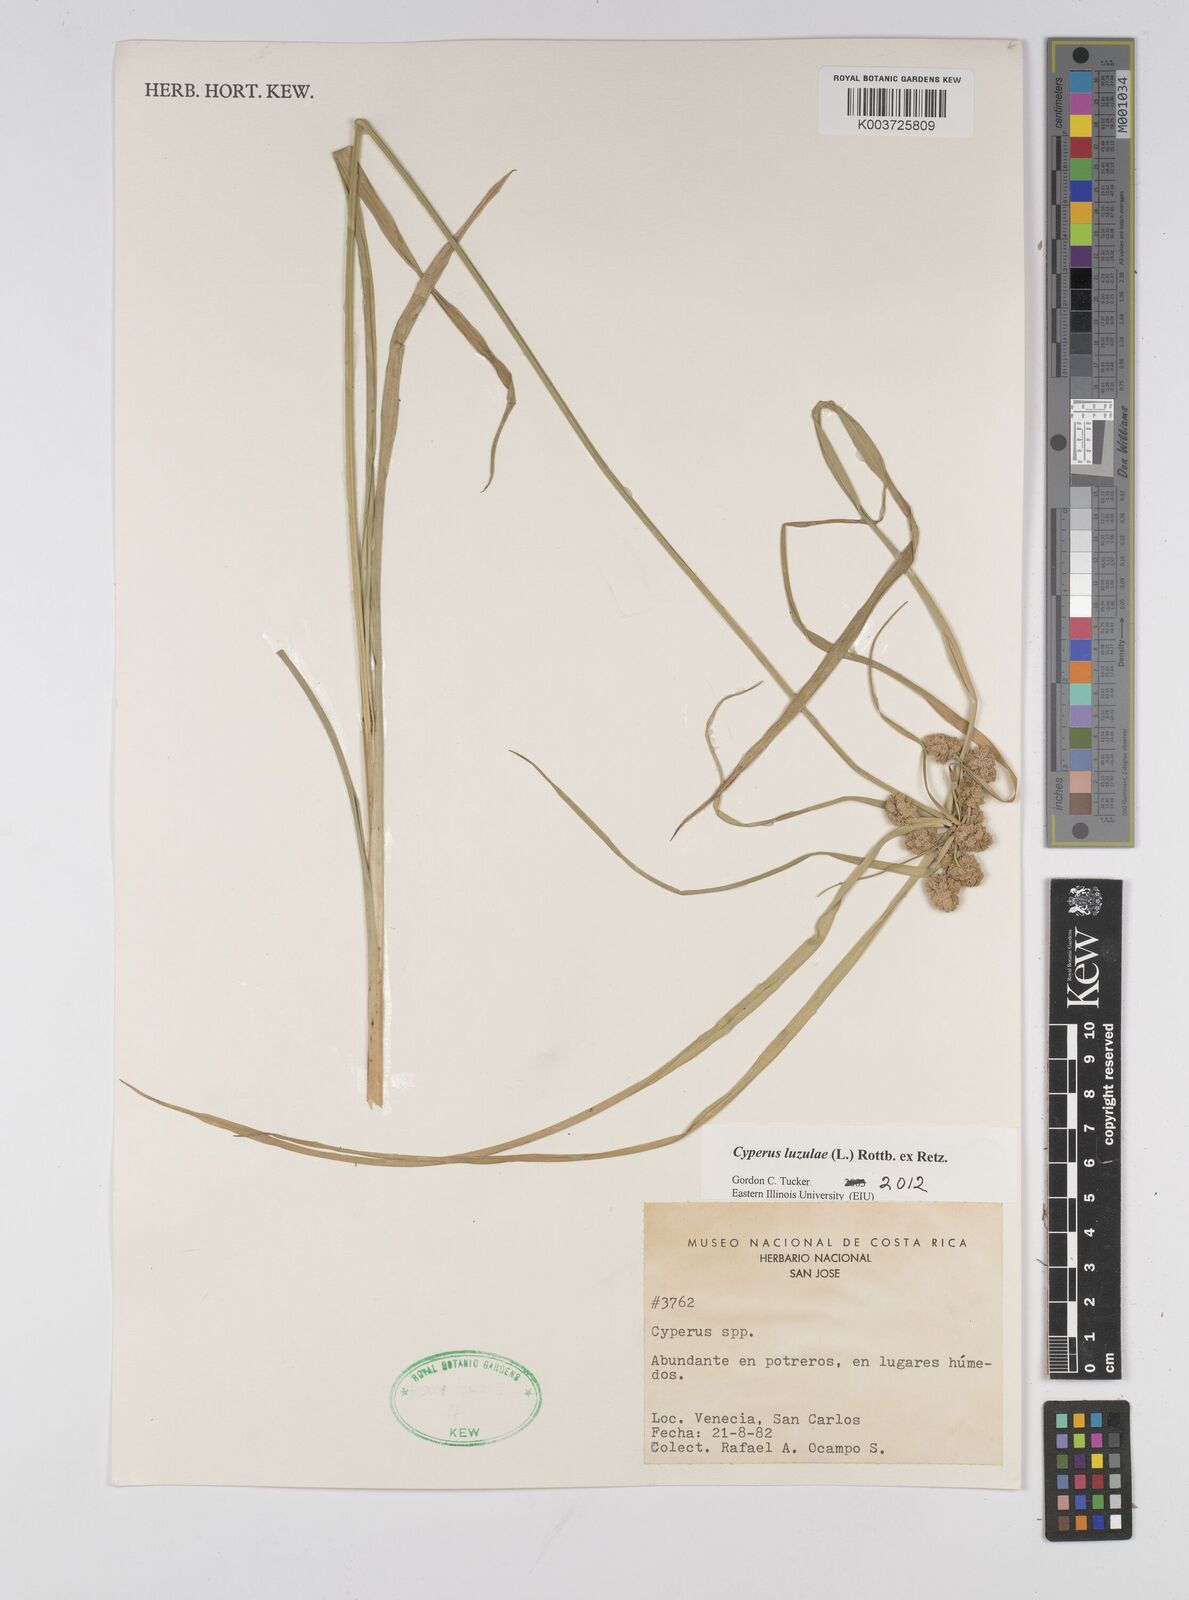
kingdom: Plantae
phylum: Tracheophyta
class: Liliopsida
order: Poales
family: Cyperaceae
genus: Cyperus
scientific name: Cyperus luzulae
